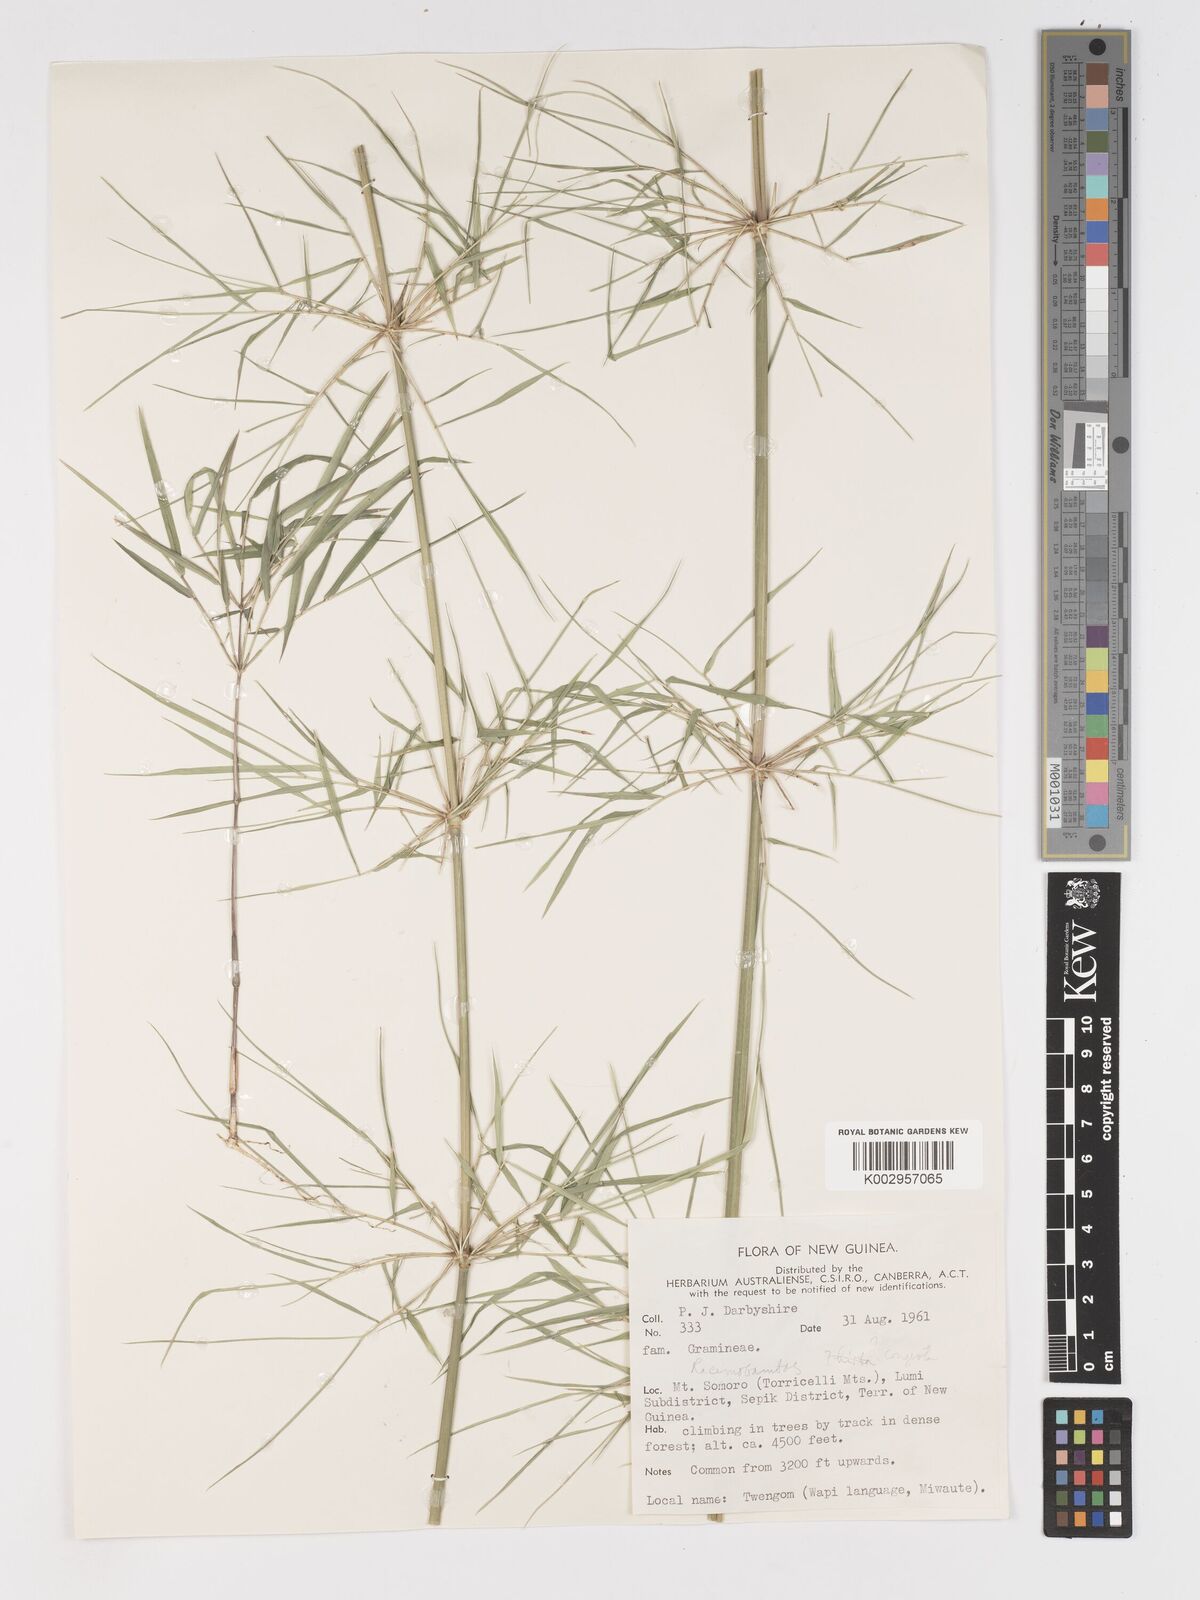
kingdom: Plantae
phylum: Tracheophyta
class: Liliopsida
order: Poales
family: Poaceae
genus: Racemobambos
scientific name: Racemobambos
